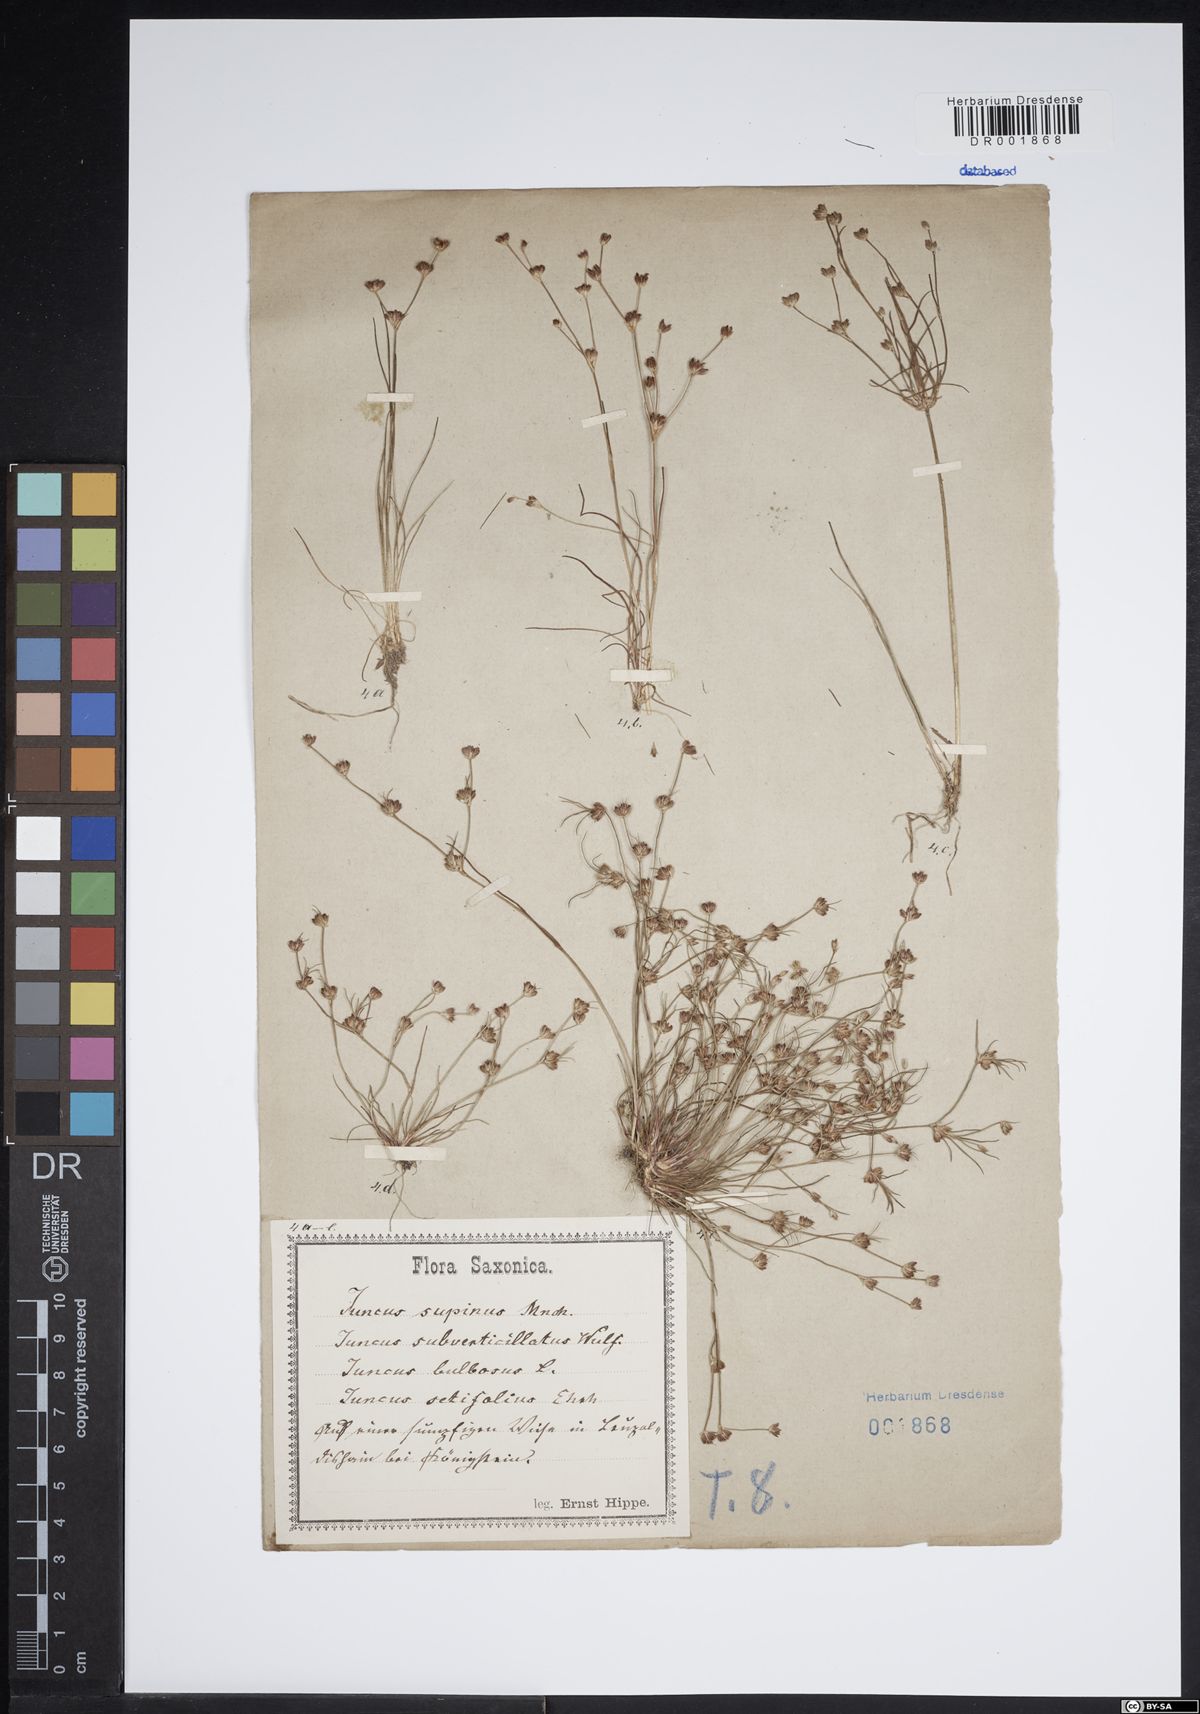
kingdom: Plantae
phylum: Tracheophyta
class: Liliopsida
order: Poales
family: Juncaceae
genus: Juncus
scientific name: Juncus bulbosus
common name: Bulbous rush
